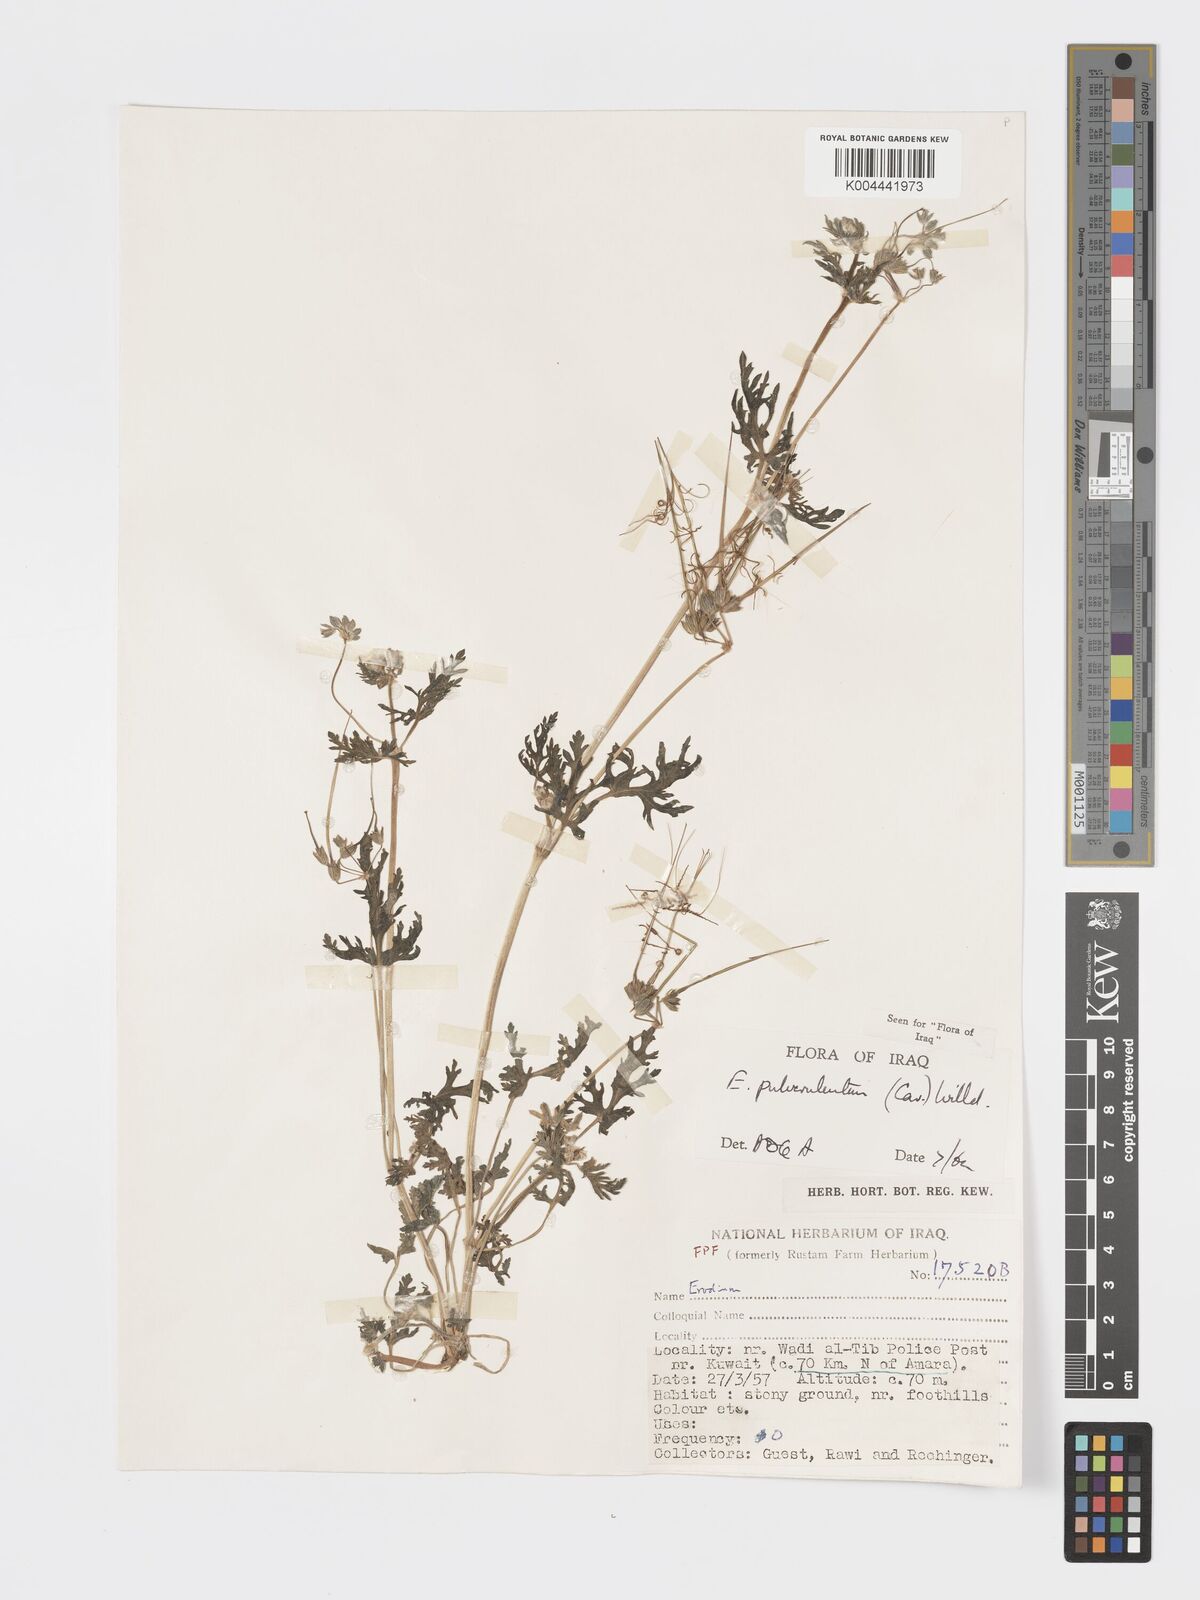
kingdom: Plantae
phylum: Tracheophyta
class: Magnoliopsida
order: Geraniales
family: Geraniaceae
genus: Erodium
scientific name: Erodium laciniatum
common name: Cutleaf stork's bill
